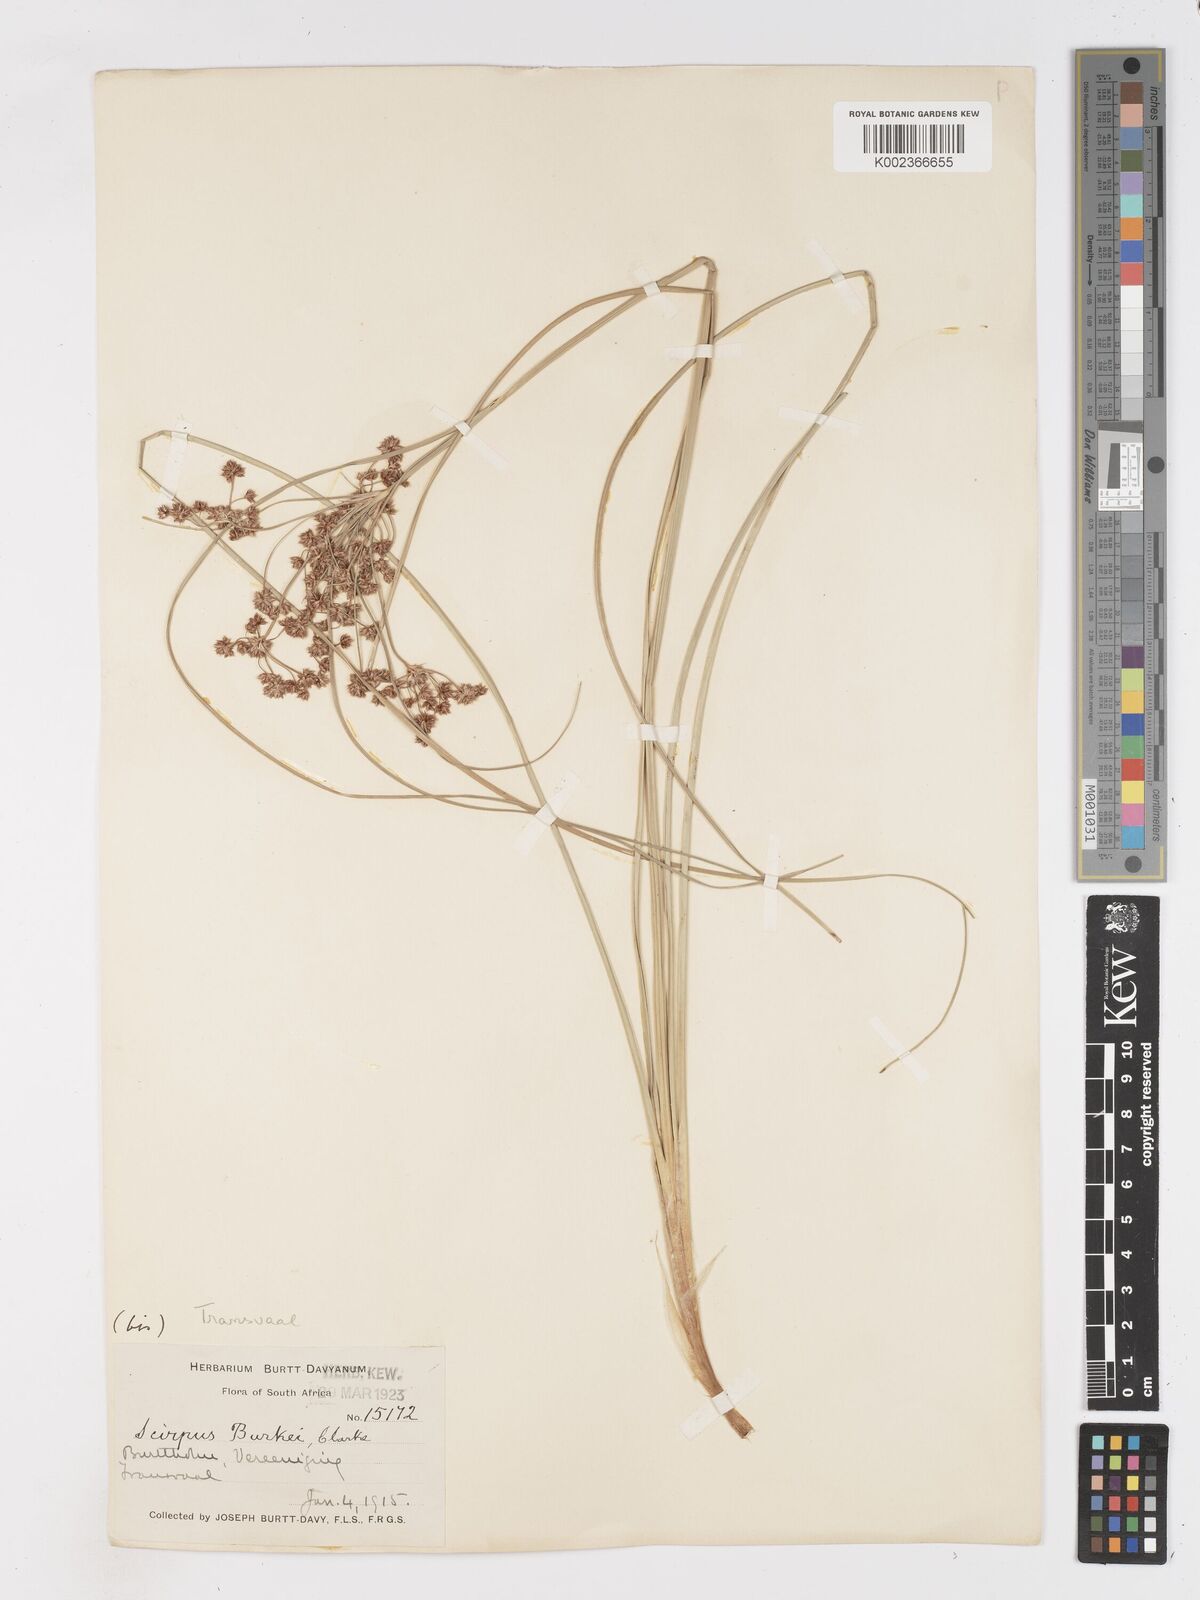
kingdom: Plantae
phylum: Tracheophyta
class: Liliopsida
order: Poales
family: Cyperaceae
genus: Scirpoides
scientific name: Scirpoides burkei
